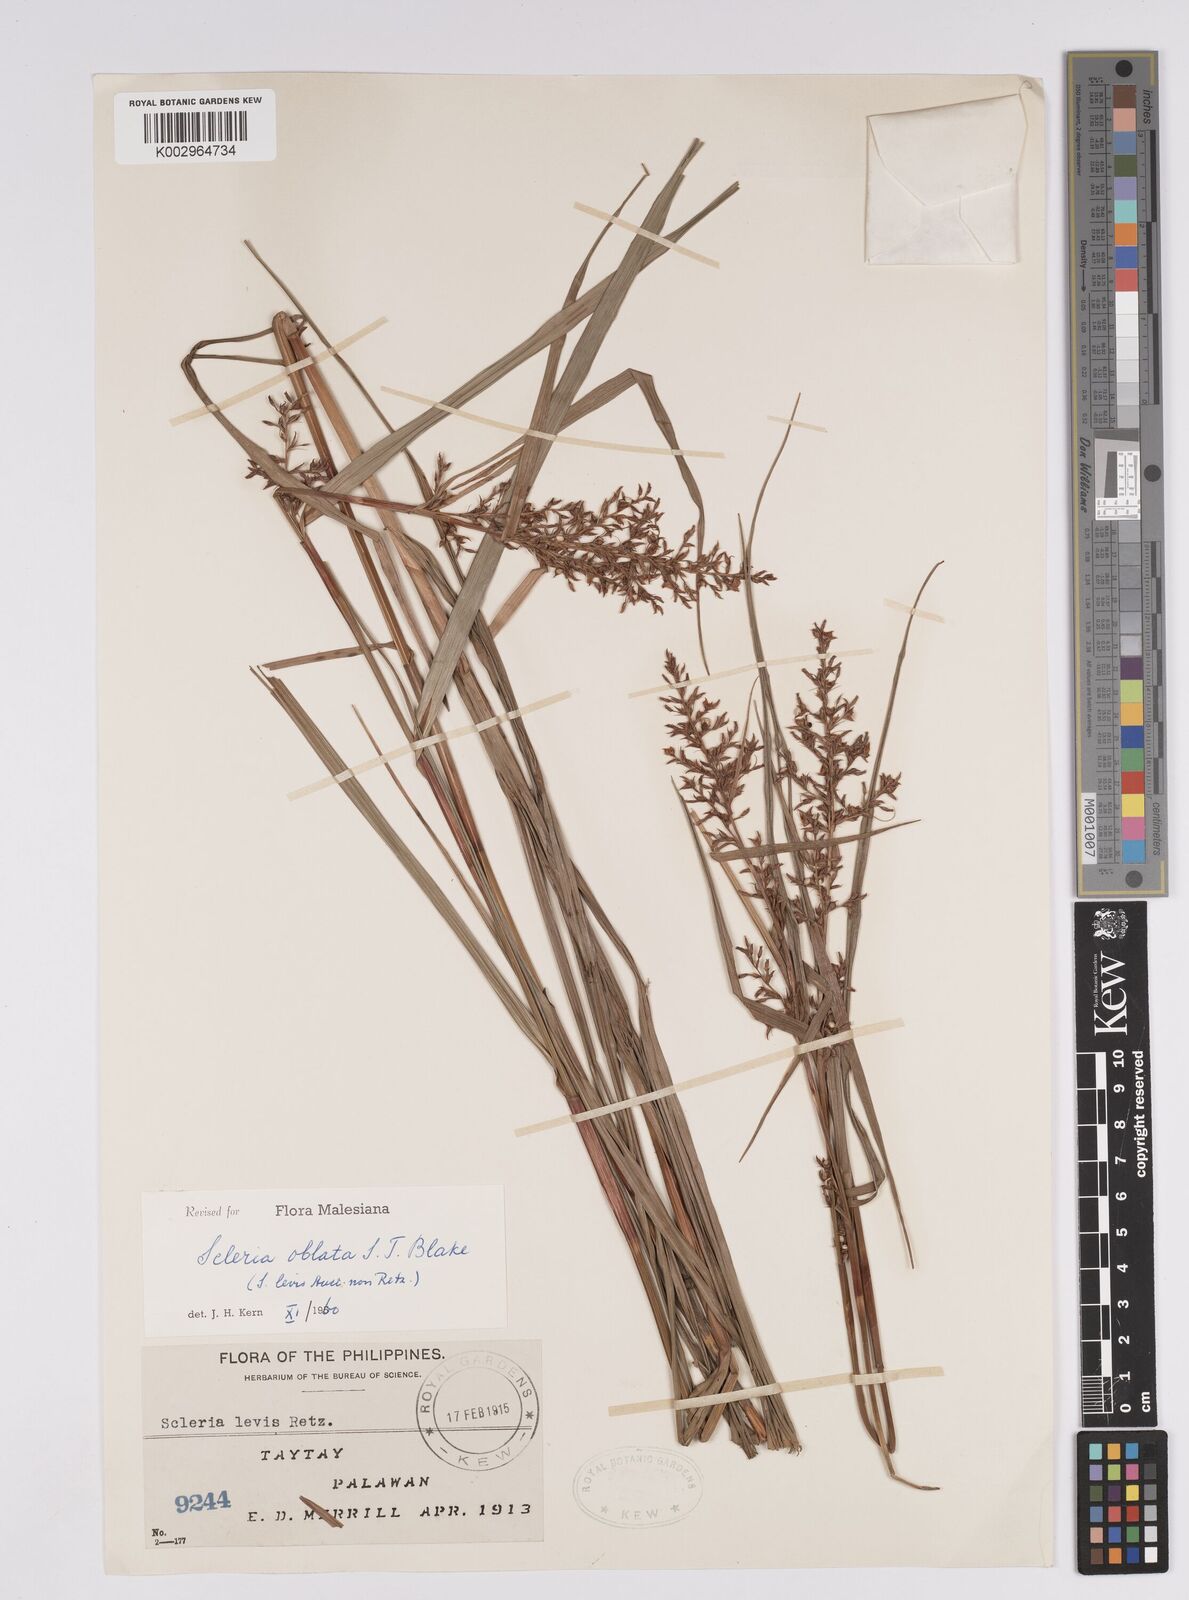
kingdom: Plantae
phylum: Tracheophyta
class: Liliopsida
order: Poales
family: Cyperaceae
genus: Scleria
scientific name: Scleria oblata
